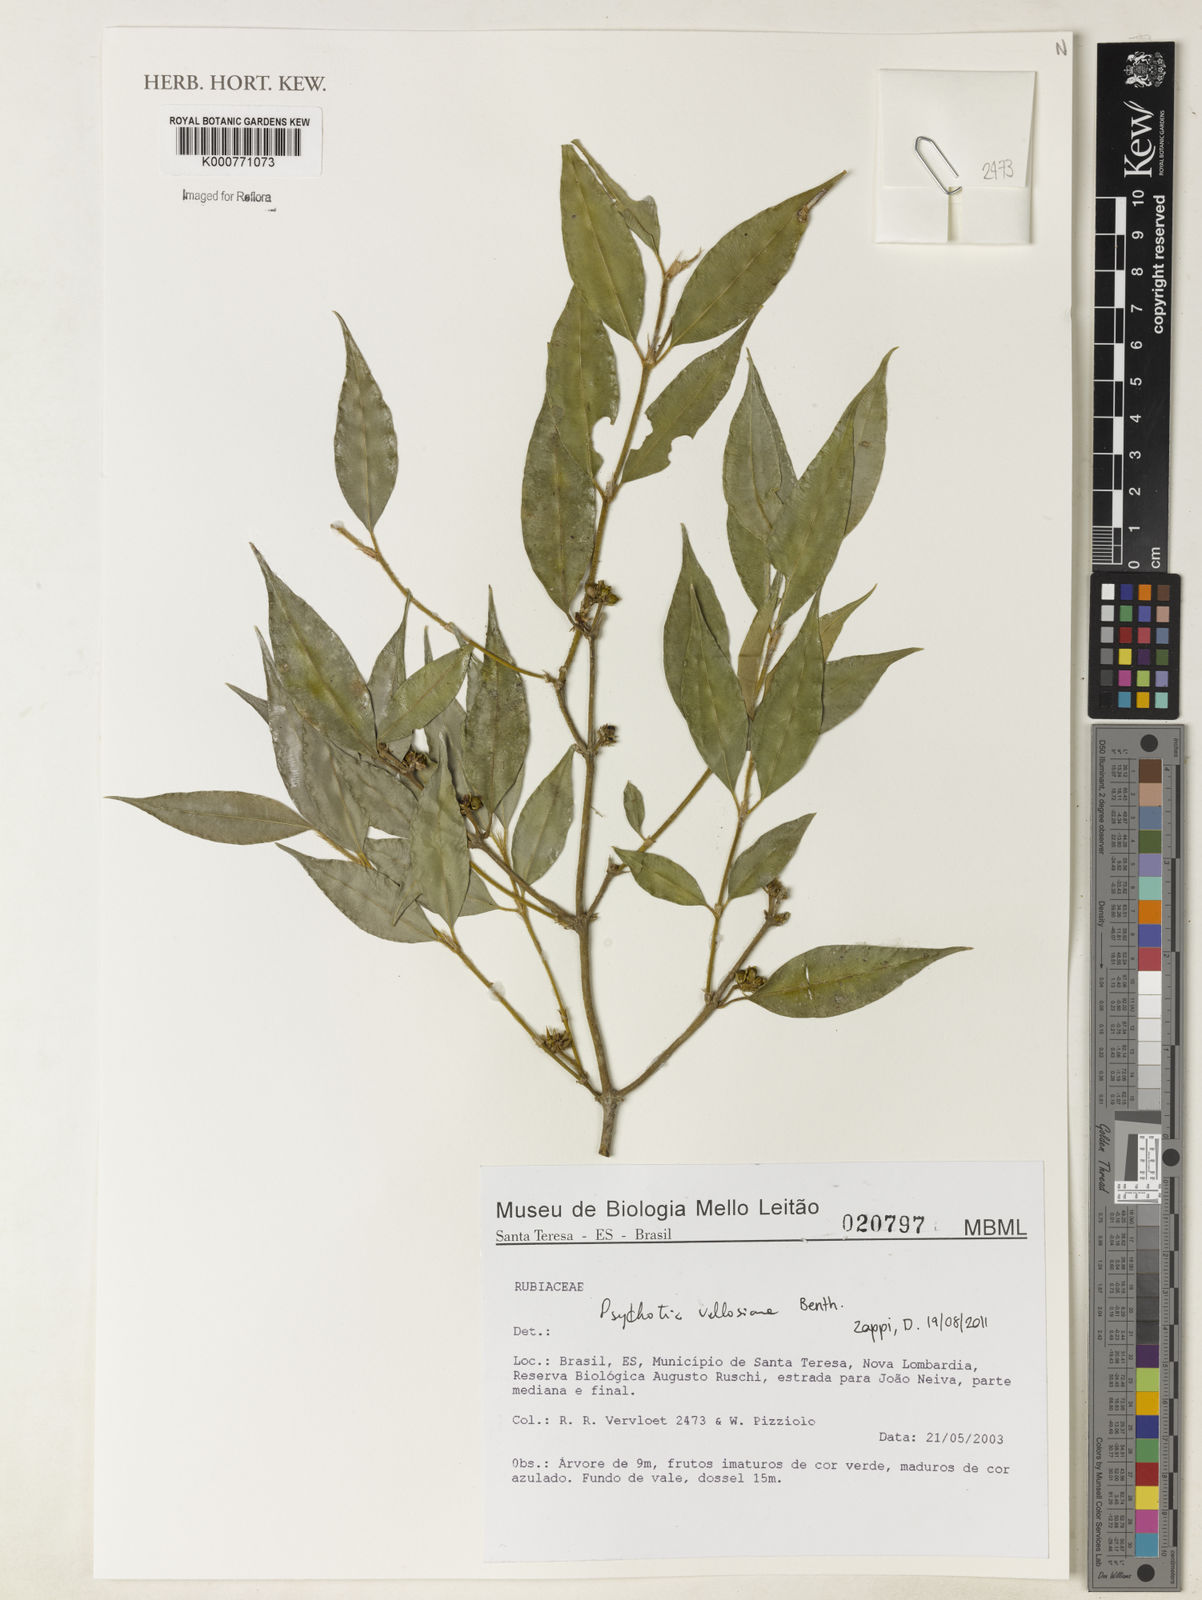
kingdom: Plantae
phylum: Tracheophyta
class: Magnoliopsida
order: Gentianales
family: Rubiaceae
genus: Palicourea
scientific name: Palicourea sessilis
